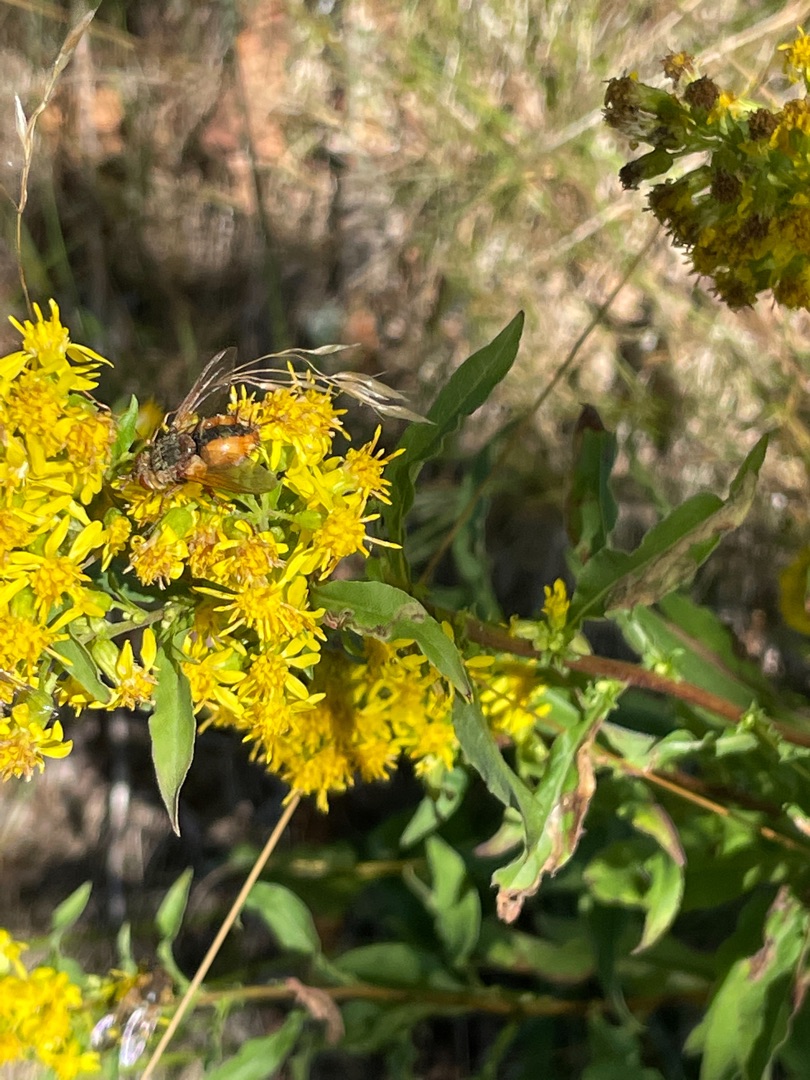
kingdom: Animalia
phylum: Arthropoda
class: Insecta
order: Diptera
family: Tachinidae
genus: Tachina
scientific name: Tachina fera
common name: Mellemfluen oskar
